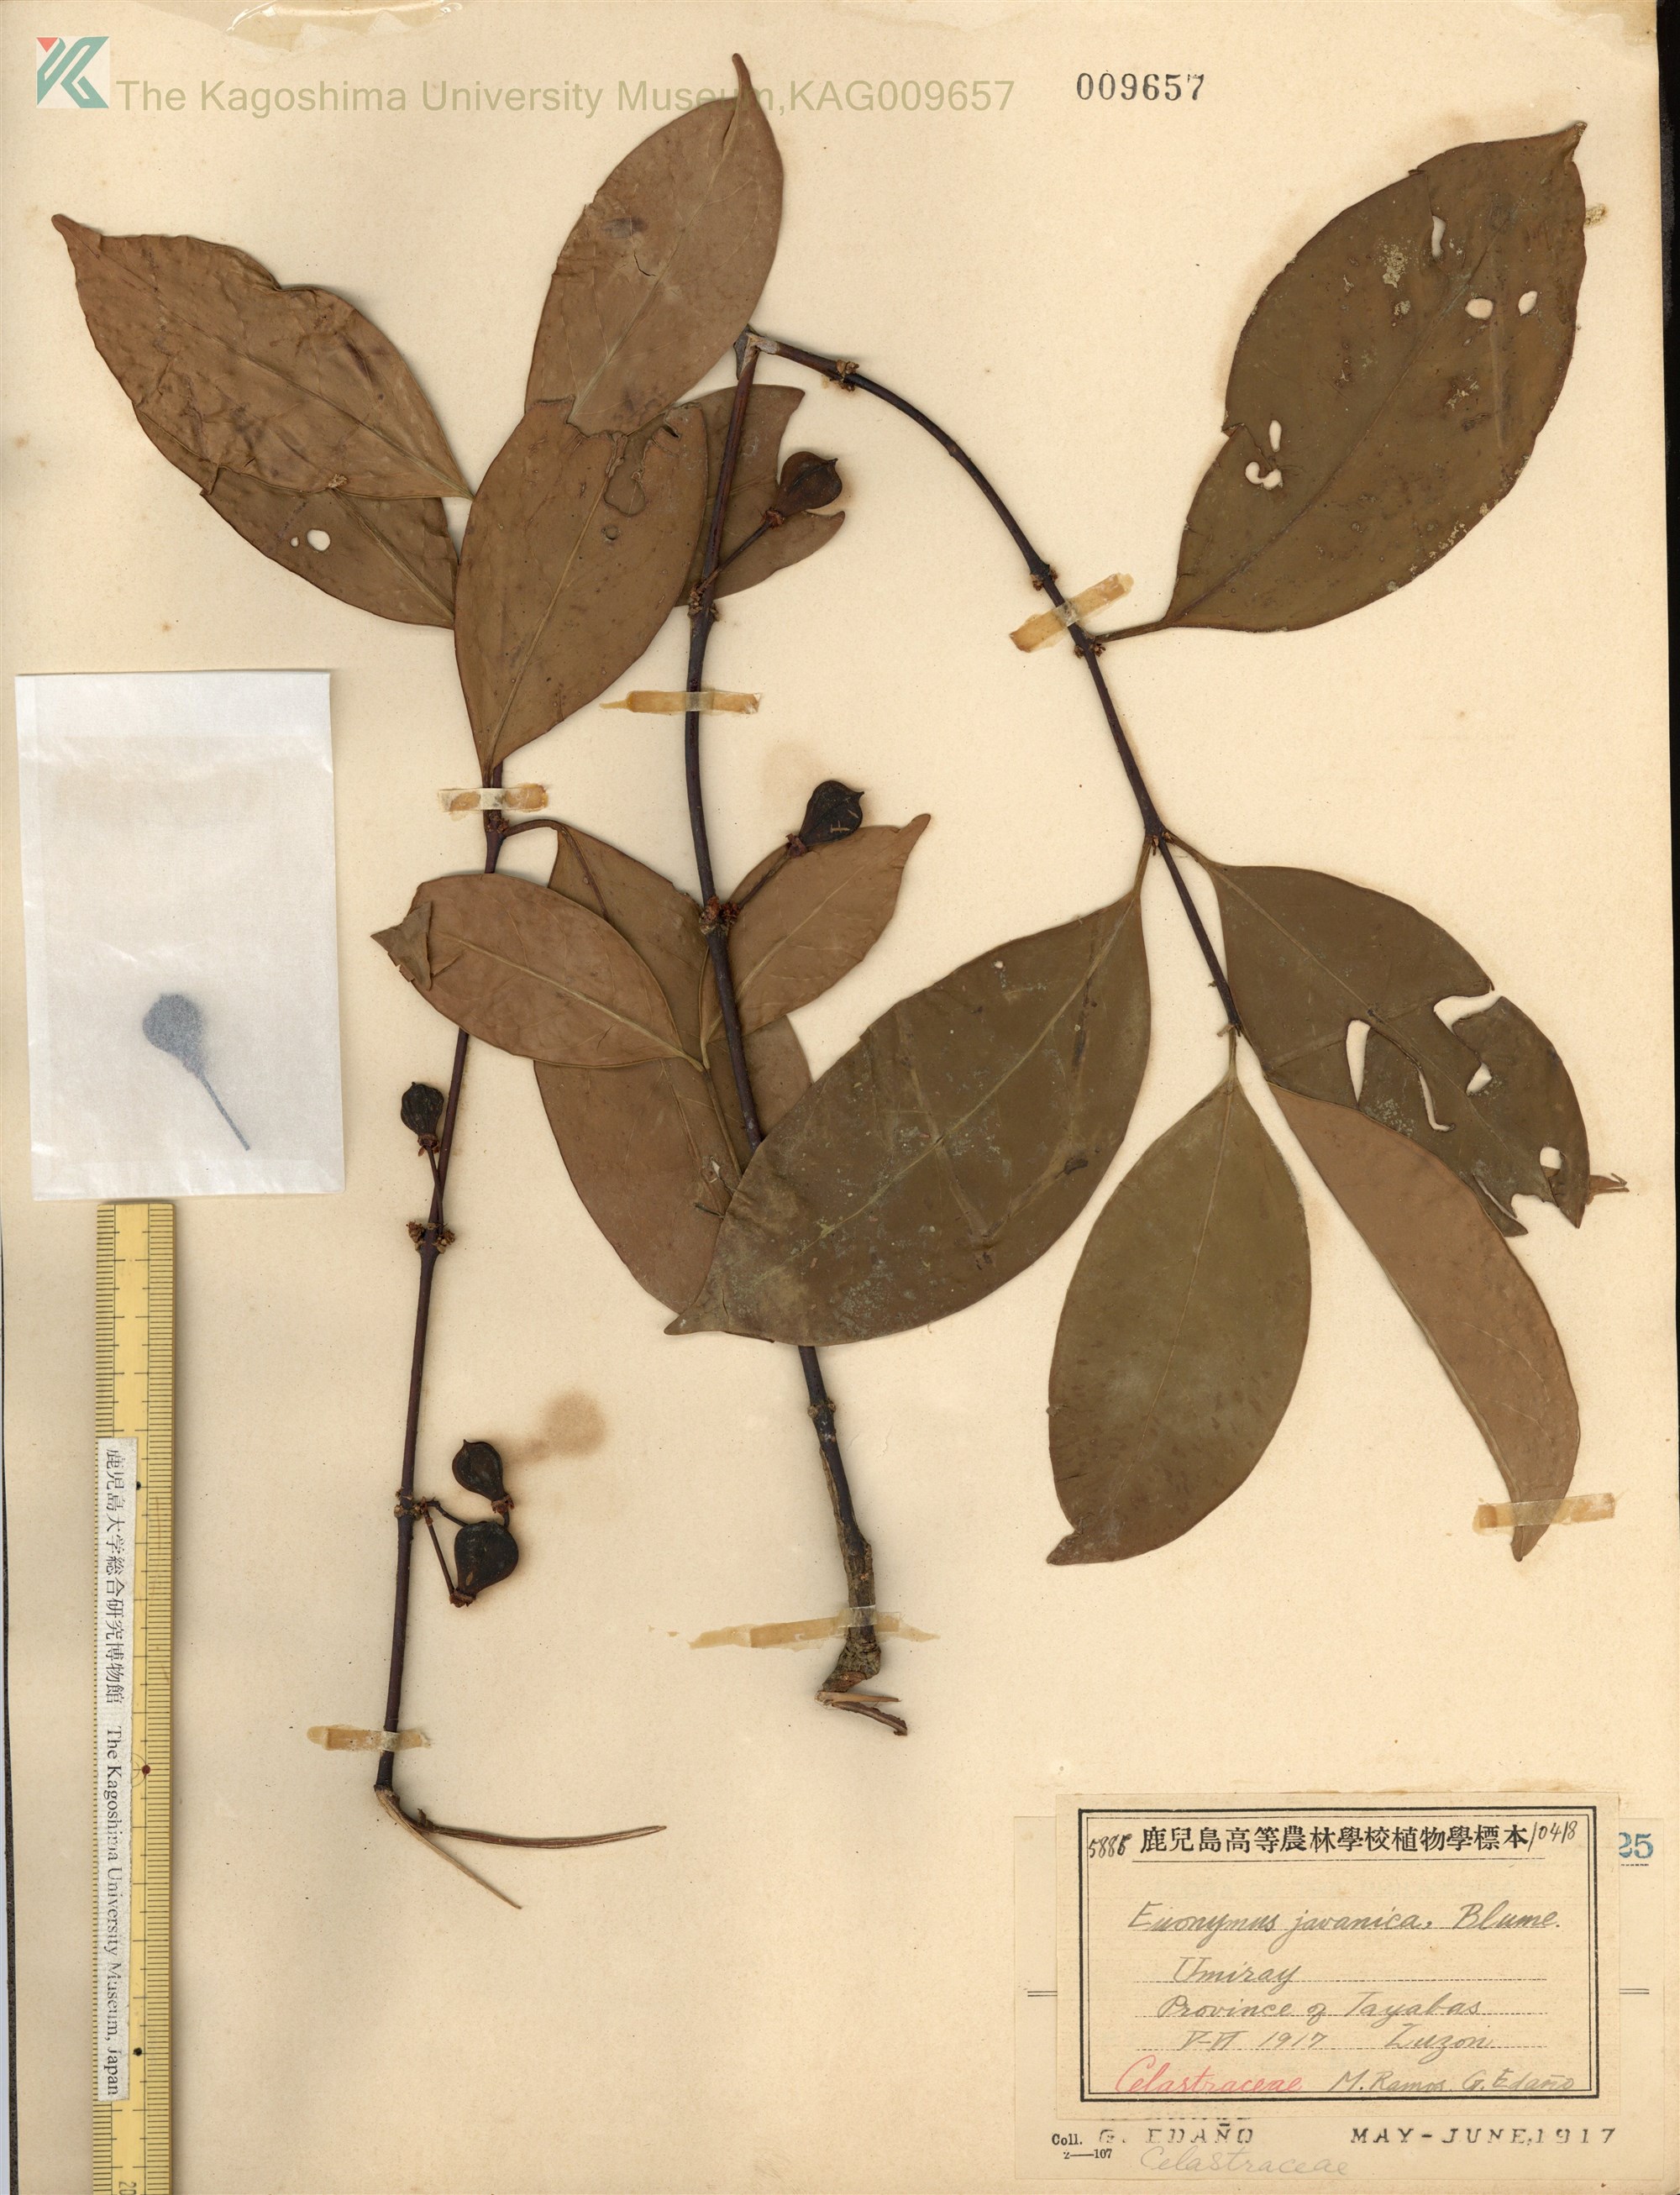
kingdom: Plantae
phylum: Tracheophyta
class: Magnoliopsida
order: Celastrales
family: Celastraceae
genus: Euonymus
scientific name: Euonymus indicus
